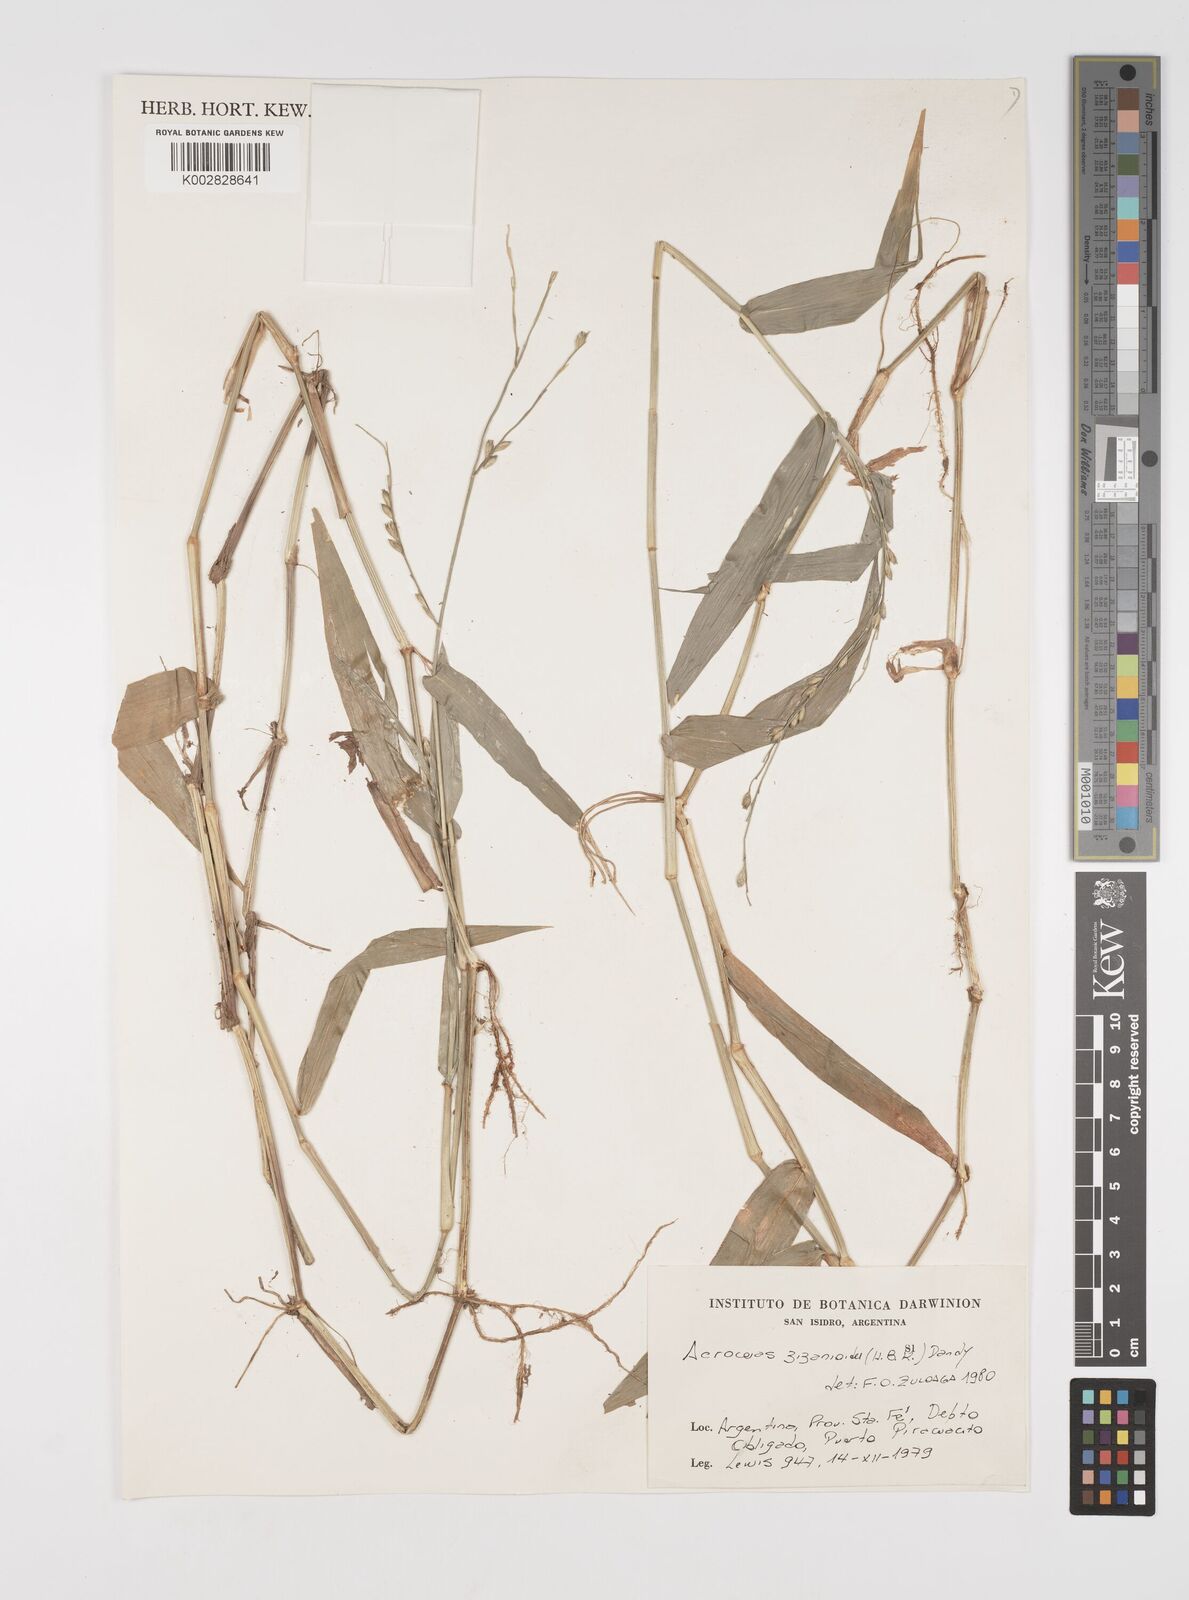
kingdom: Plantae
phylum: Tracheophyta
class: Liliopsida
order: Poales
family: Poaceae
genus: Acroceras
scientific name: Acroceras zizanioides
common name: Oat grass
